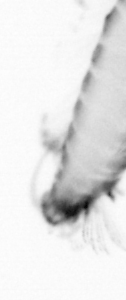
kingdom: Animalia
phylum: Annelida
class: Polychaeta
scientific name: Polychaeta
